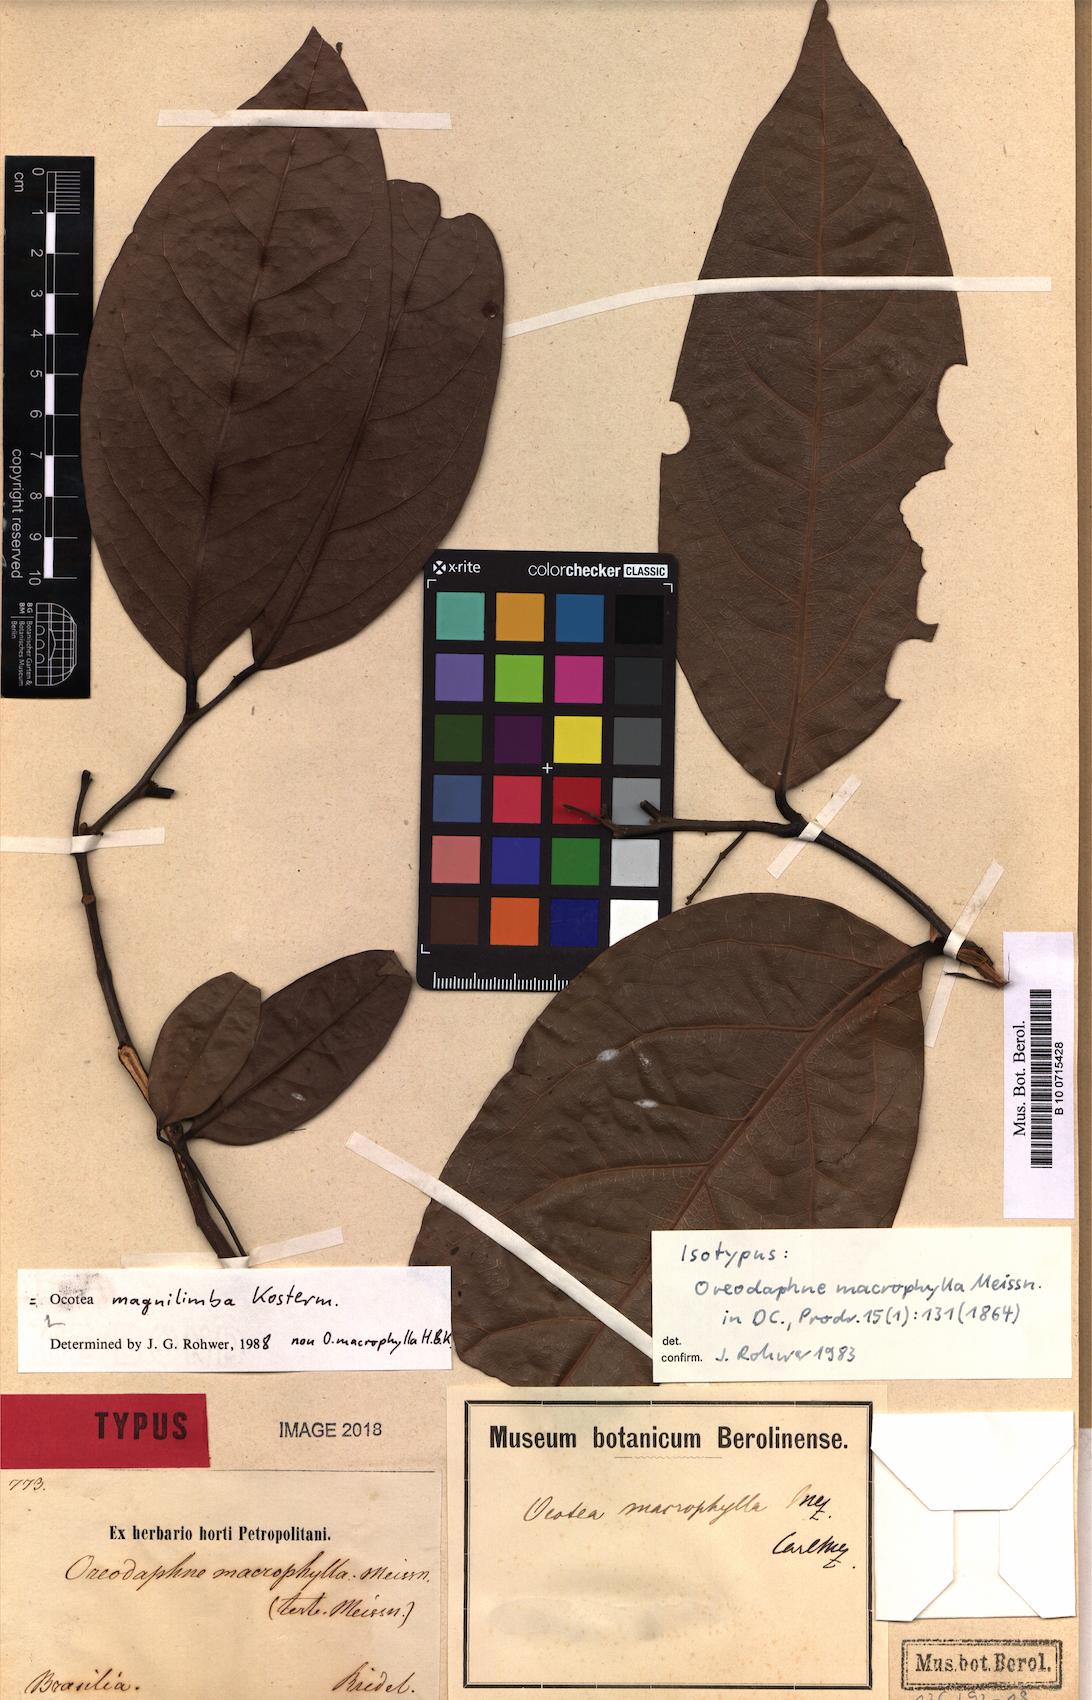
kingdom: Plantae
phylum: Tracheophyta
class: Magnoliopsida
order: Laurales
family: Lauraceae
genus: Ocotea
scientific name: Ocotea magnilimba
